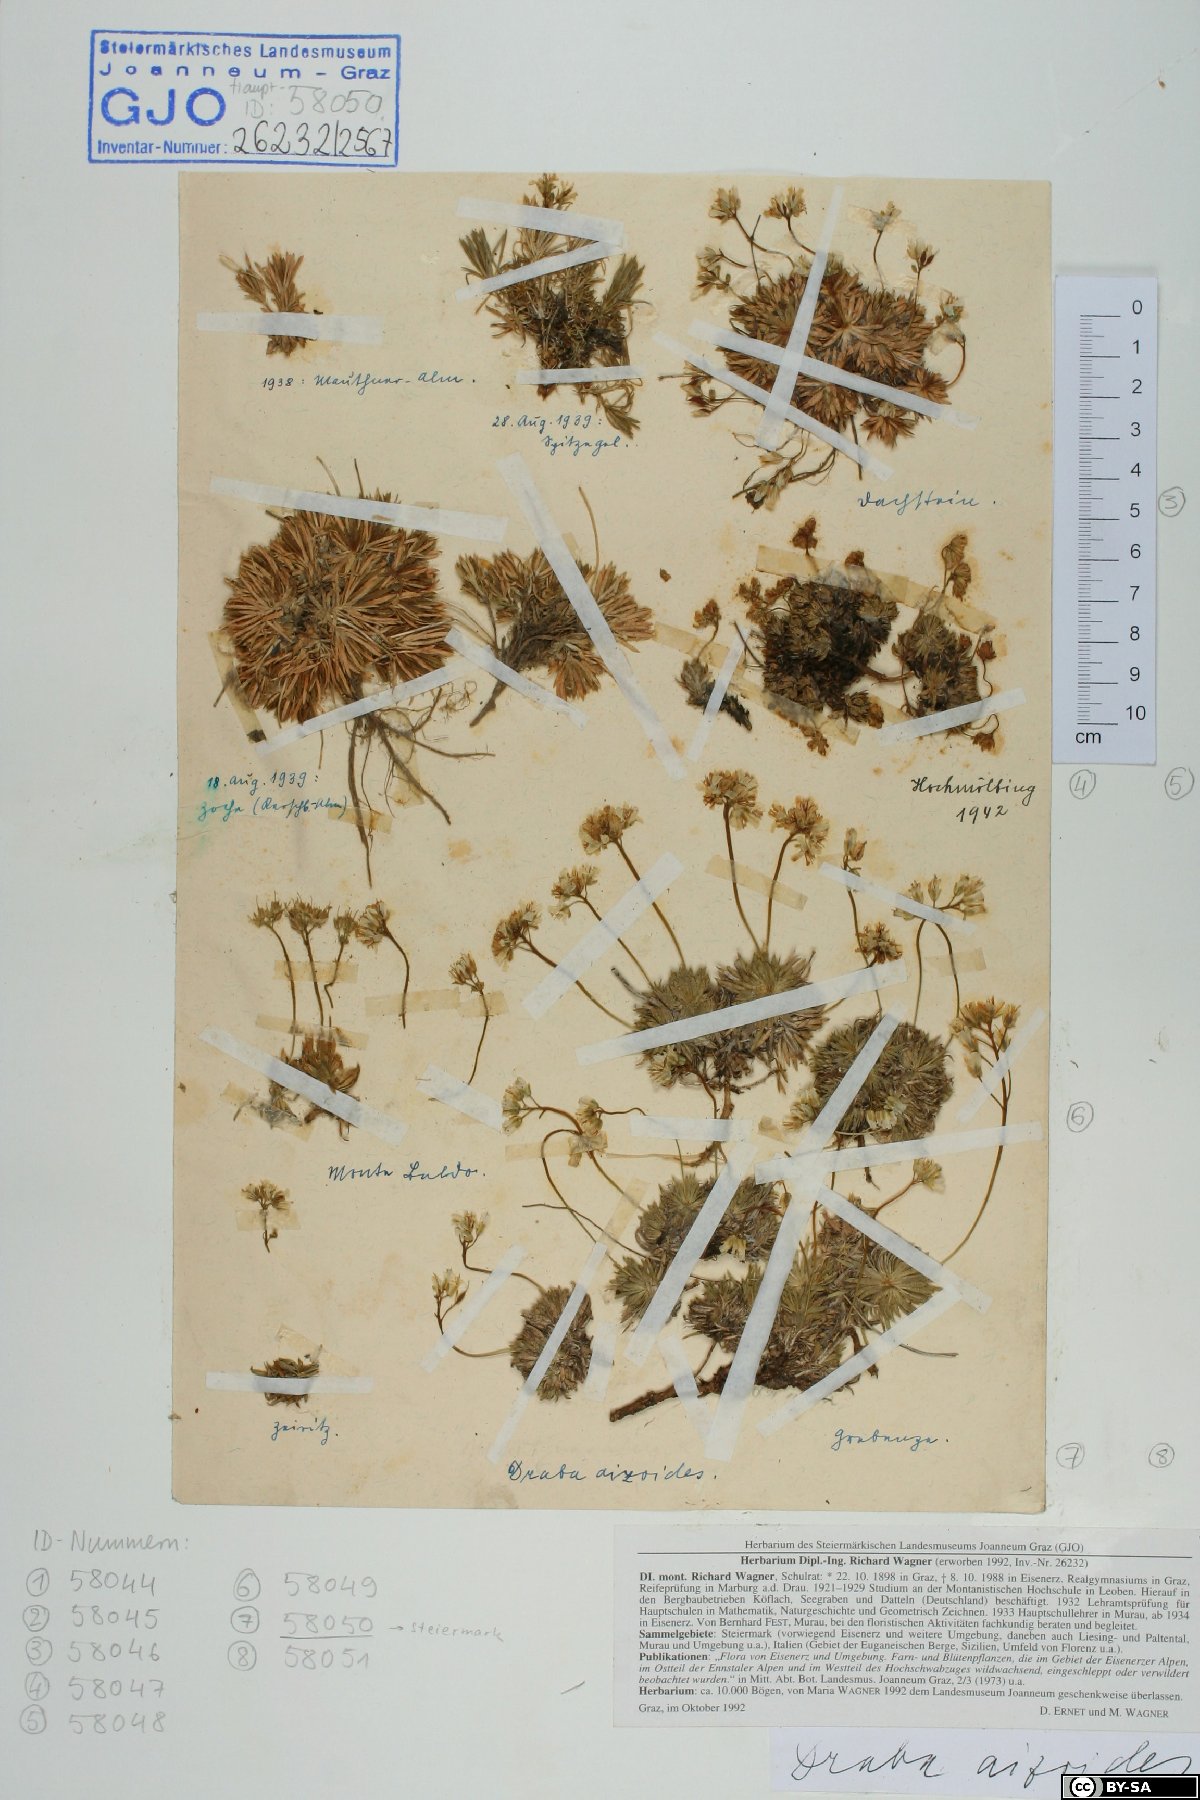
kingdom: Plantae
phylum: Tracheophyta
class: Magnoliopsida
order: Brassicales
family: Brassicaceae
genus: Draba
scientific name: Draba aizoides
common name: Yellow whitlowgrass
